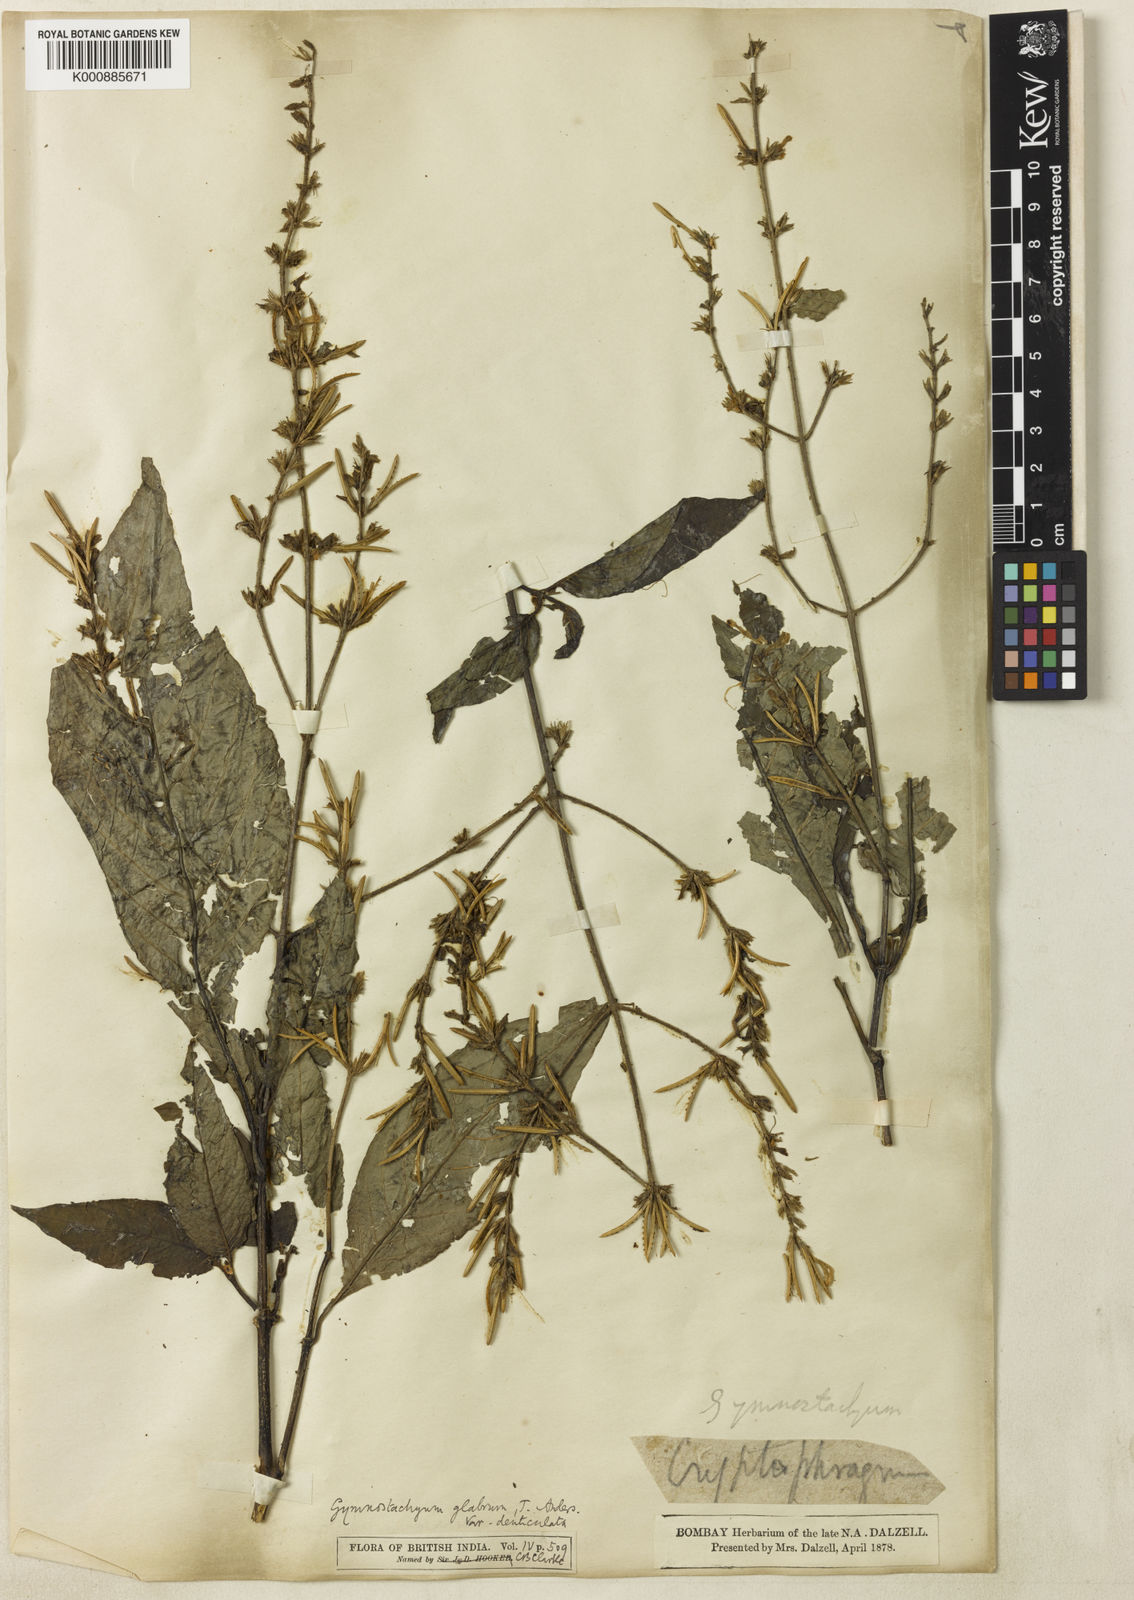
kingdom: Plantae
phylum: Tracheophyta
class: Magnoliopsida
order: Lamiales
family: Acanthaceae
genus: Gymnostachyum
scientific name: Gymnostachyum glabrum
